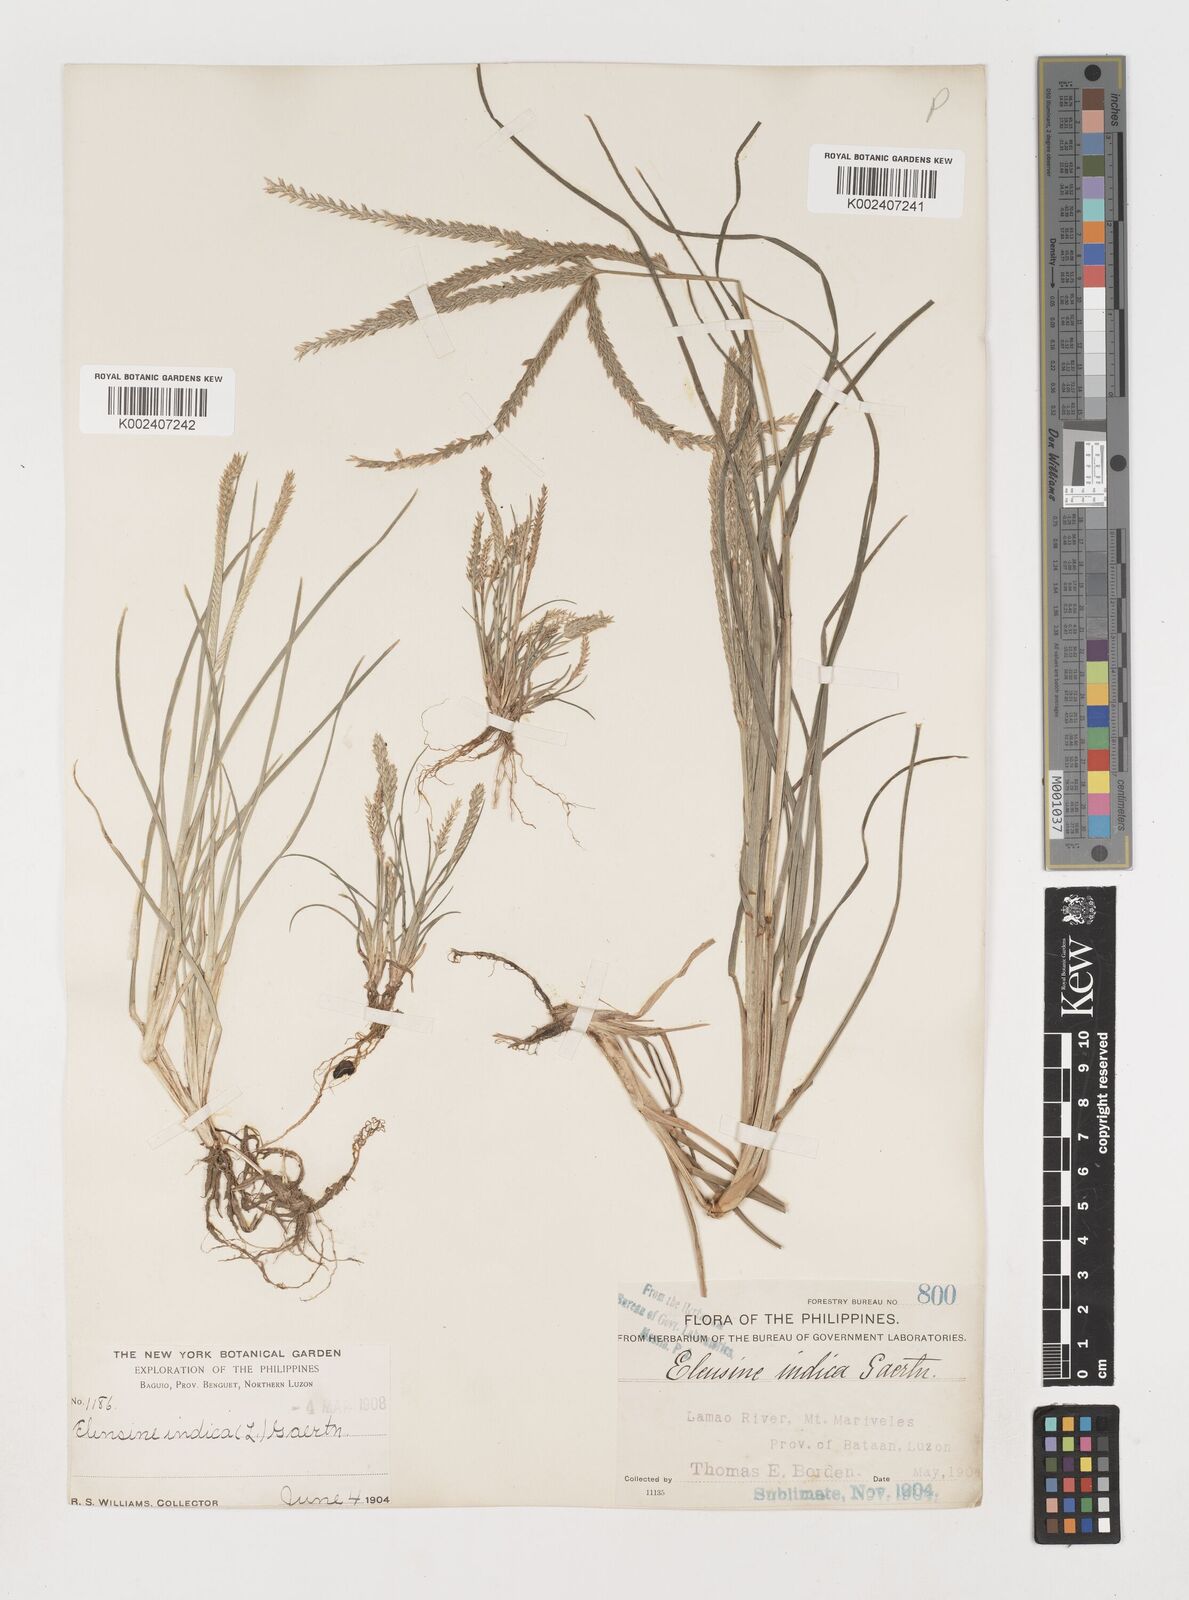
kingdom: Plantae
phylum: Tracheophyta
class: Liliopsida
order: Poales
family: Poaceae
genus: Eleusine
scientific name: Eleusine indica
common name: Yard-grass
